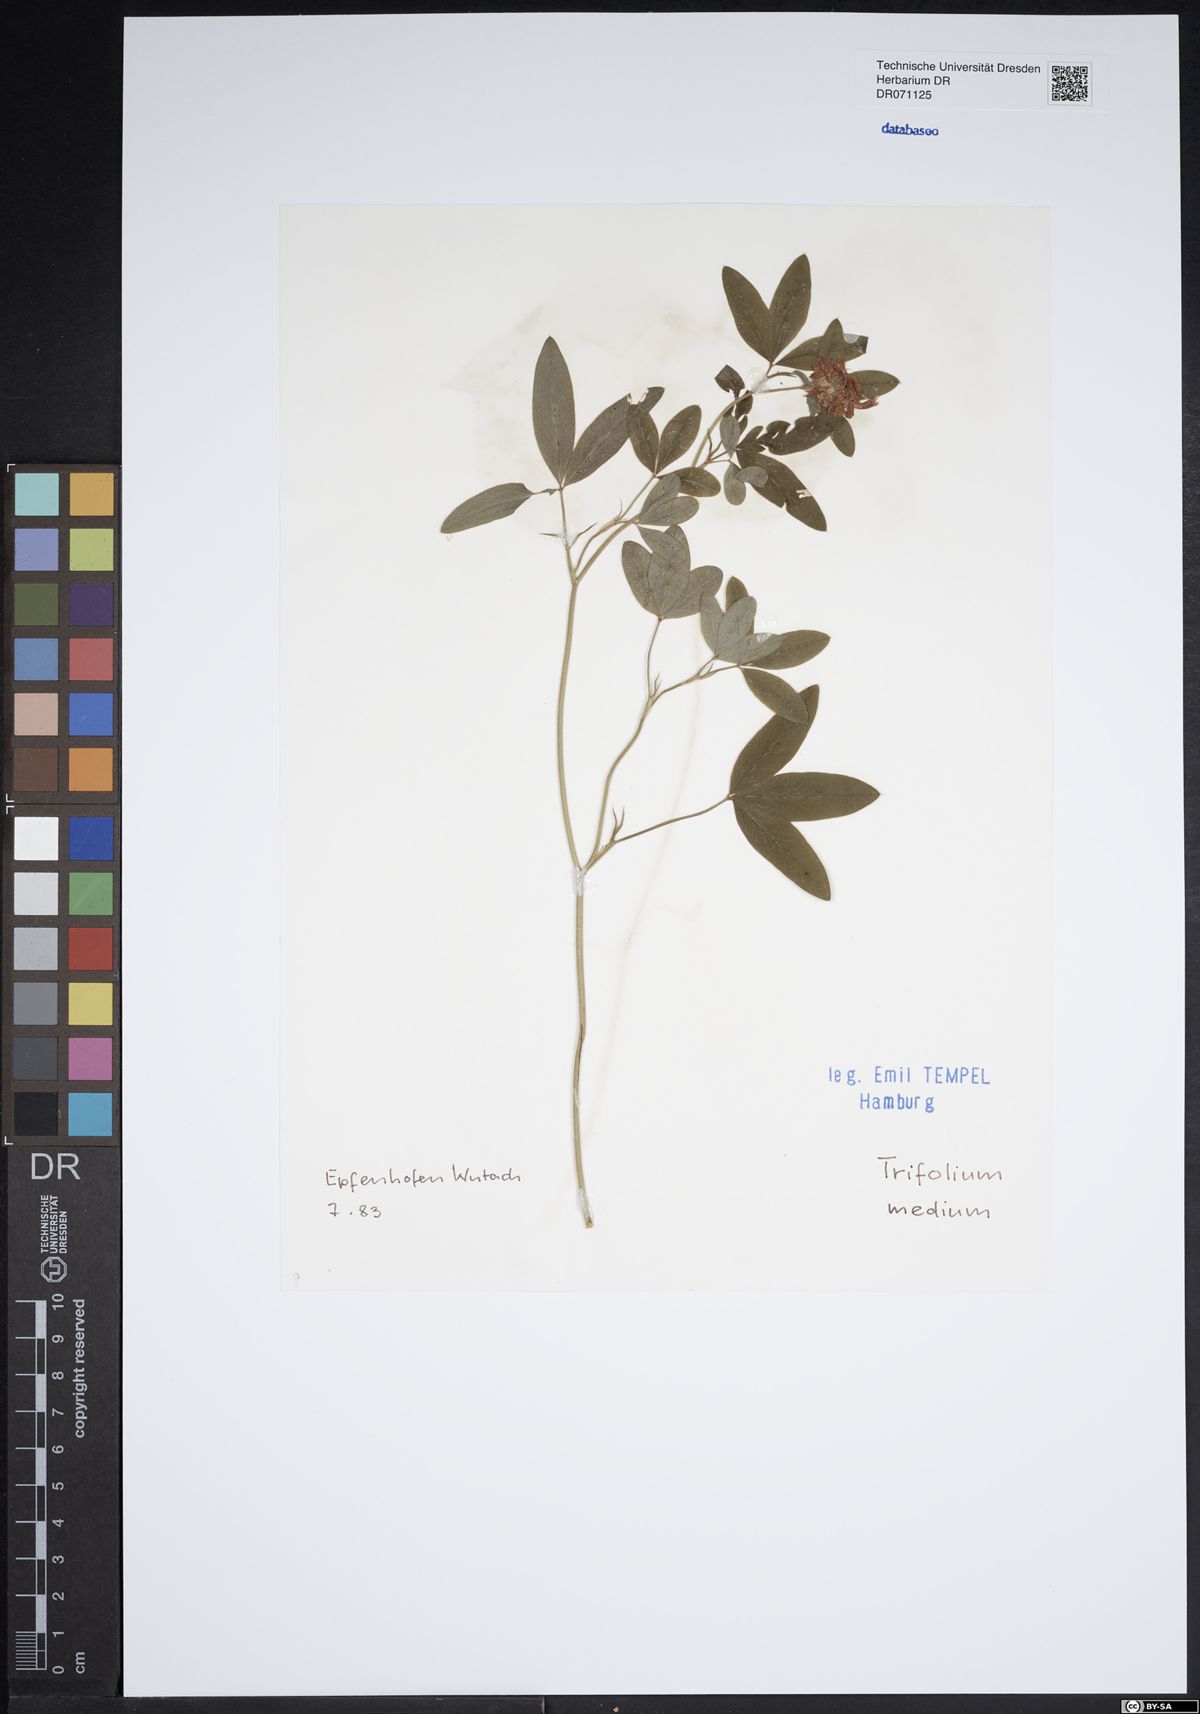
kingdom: Plantae
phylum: Tracheophyta
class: Magnoliopsida
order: Fabales
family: Fabaceae
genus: Trifolium
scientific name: Trifolium medium
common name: Zigzag clover
